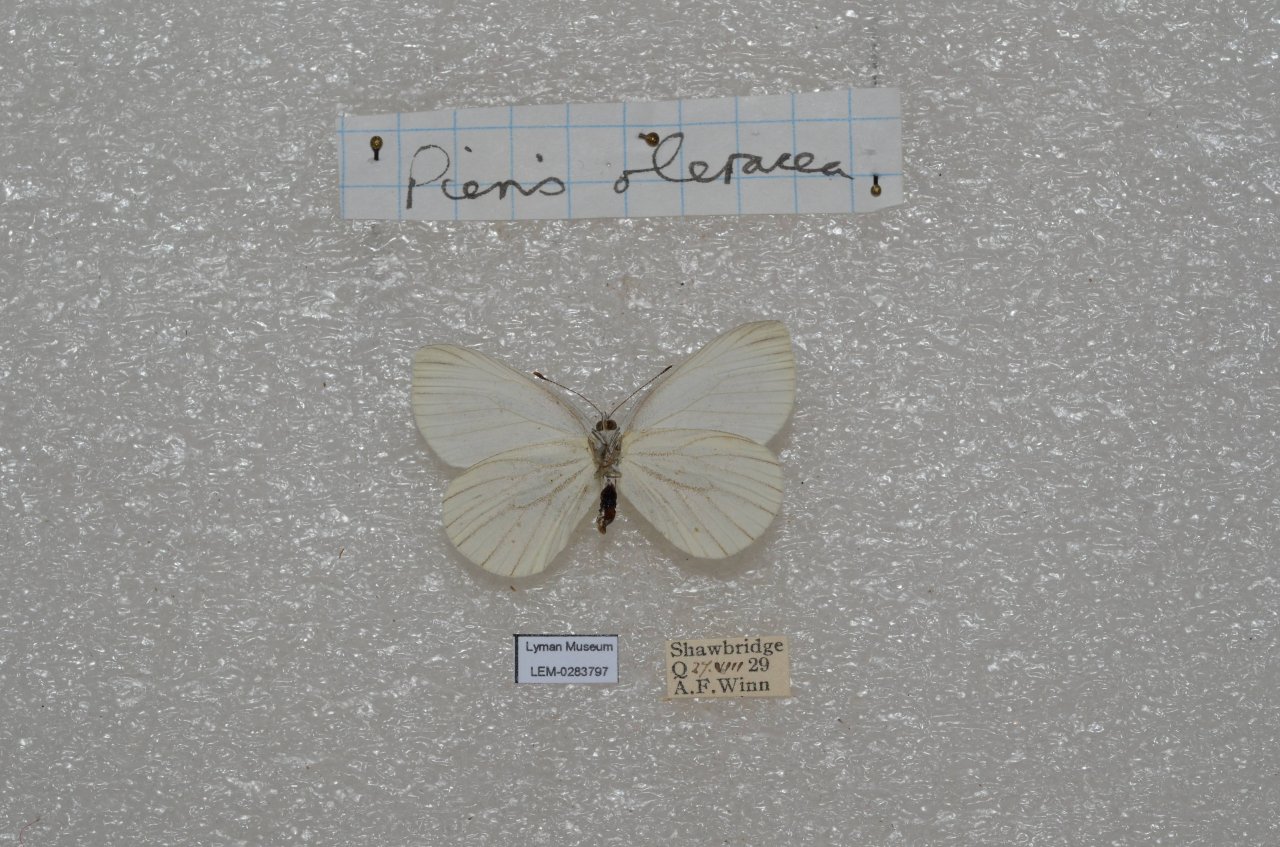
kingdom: Animalia
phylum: Arthropoda
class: Insecta
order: Lepidoptera
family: Pieridae
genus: Pieris
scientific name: Pieris oleracea
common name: Mustard White
